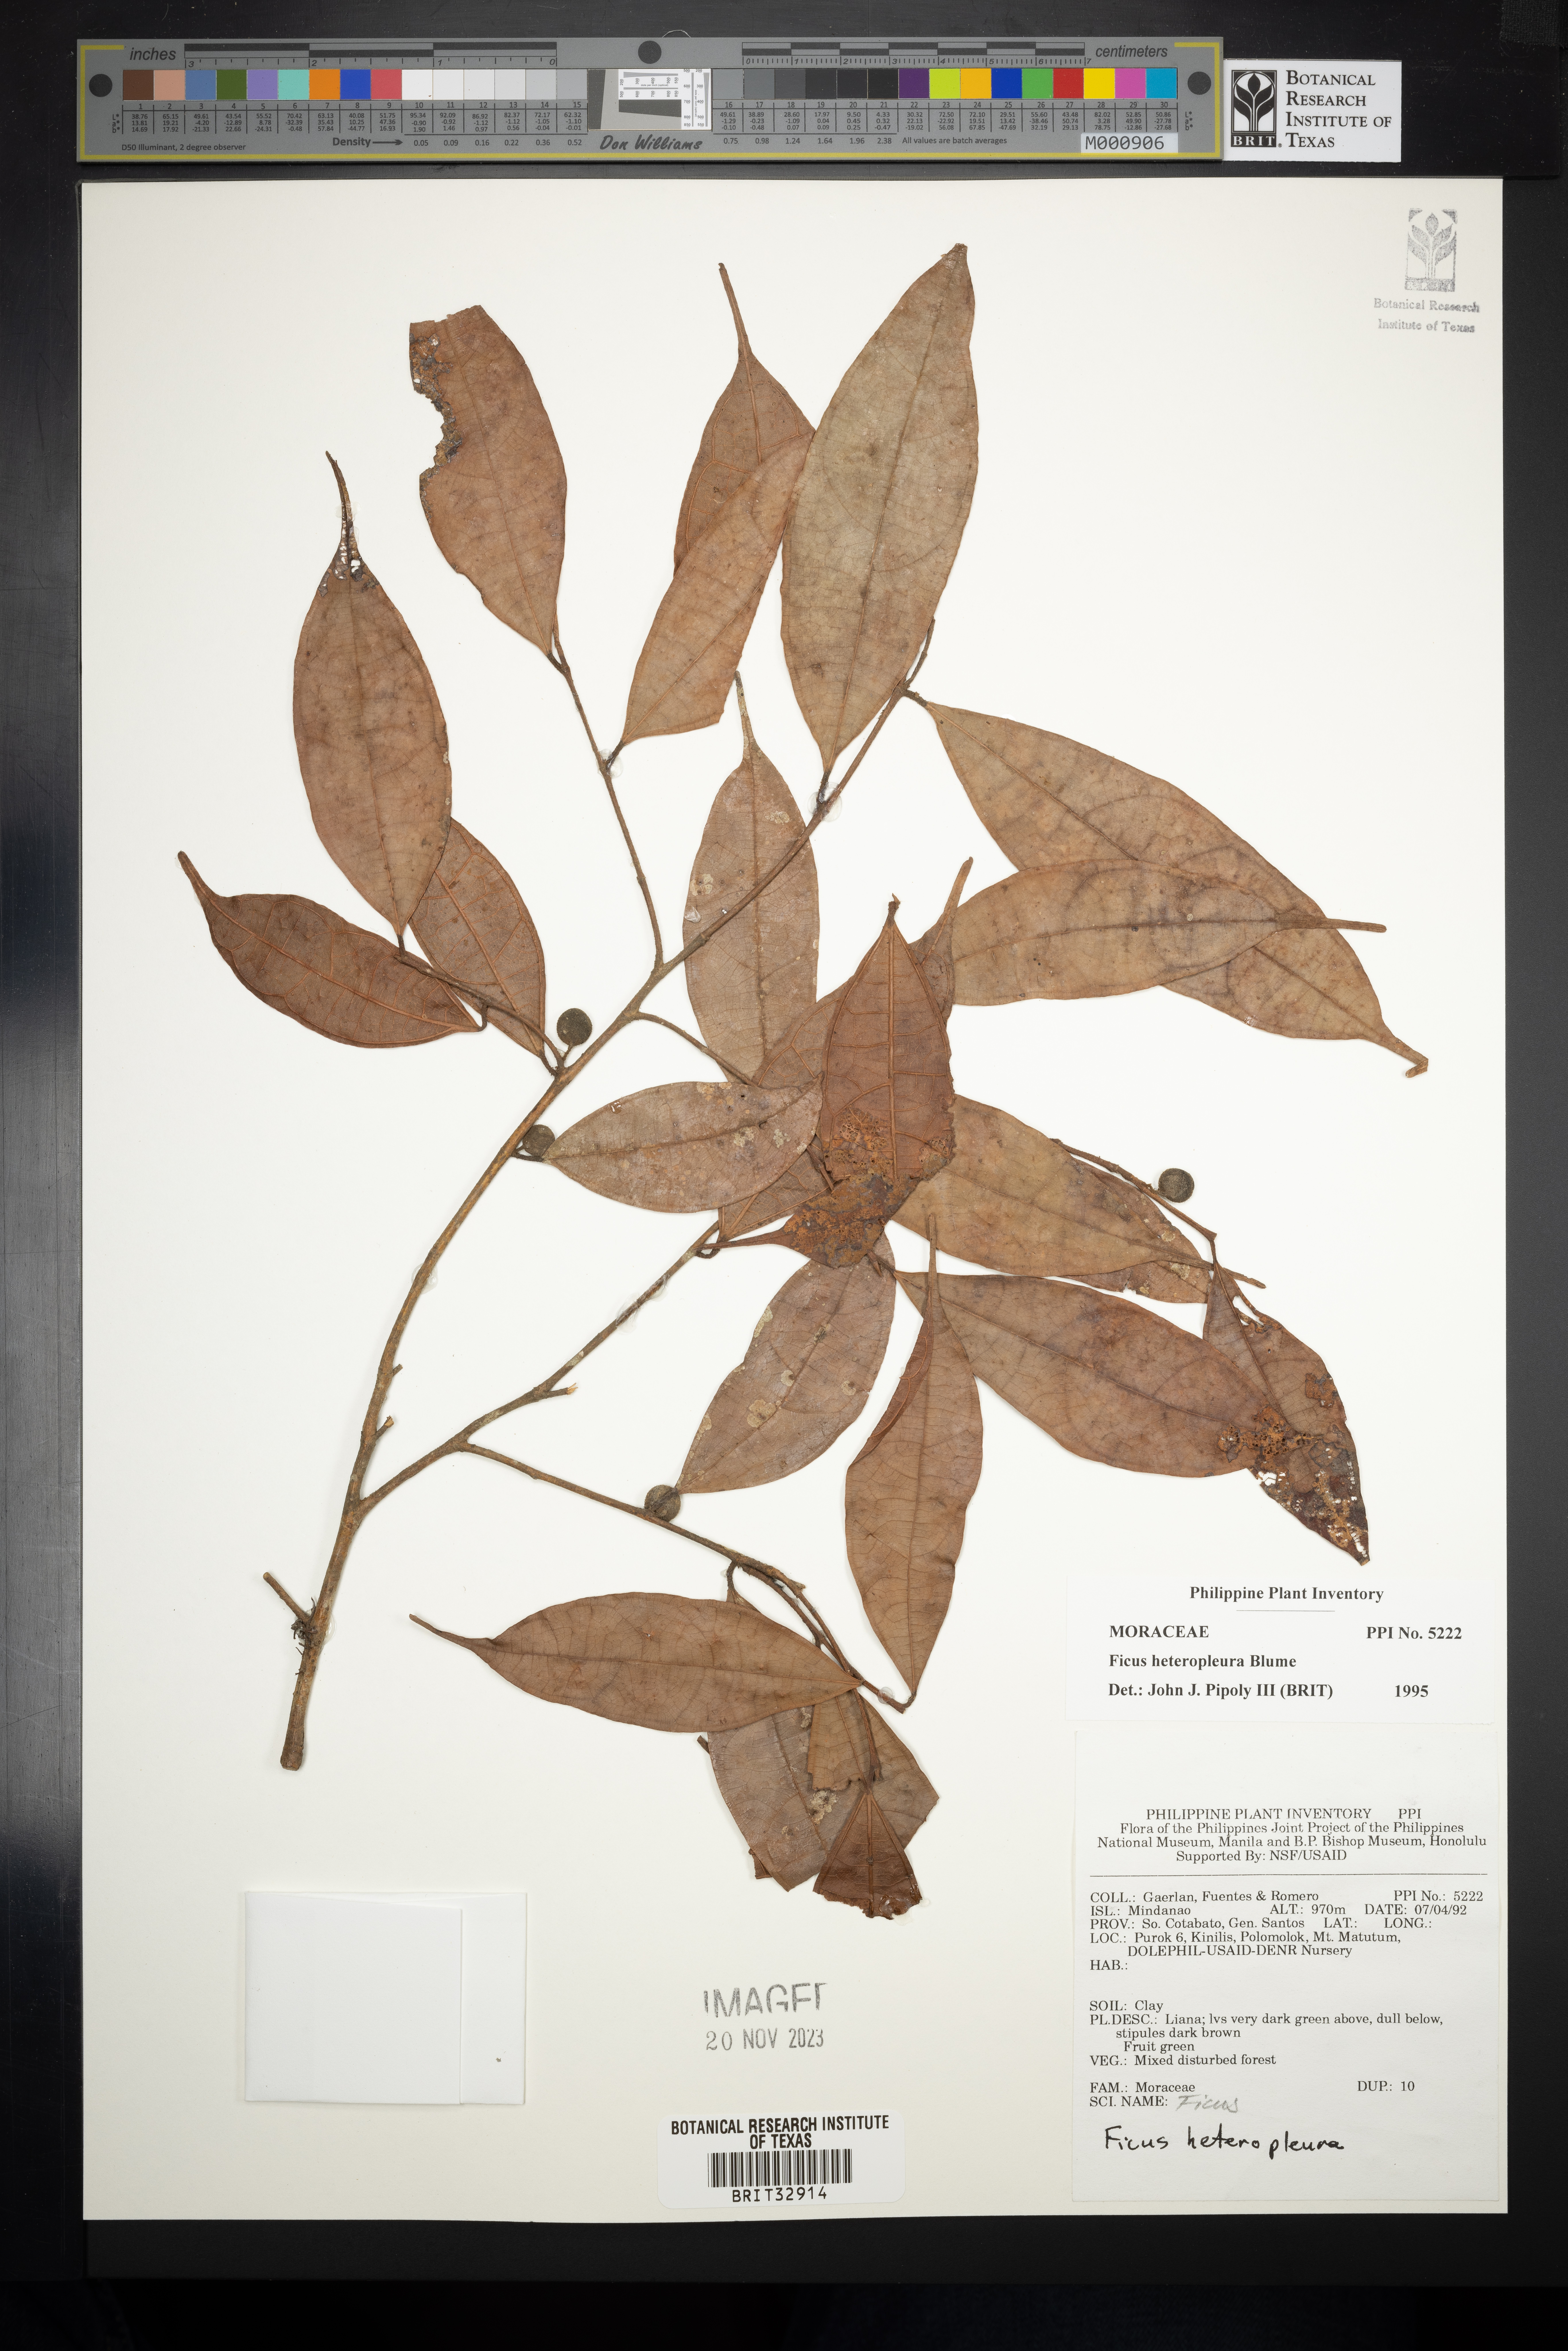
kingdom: Plantae
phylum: Tracheophyta
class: Magnoliopsida
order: Rosales
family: Moraceae
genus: Ficus
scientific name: Ficus heteropleura
